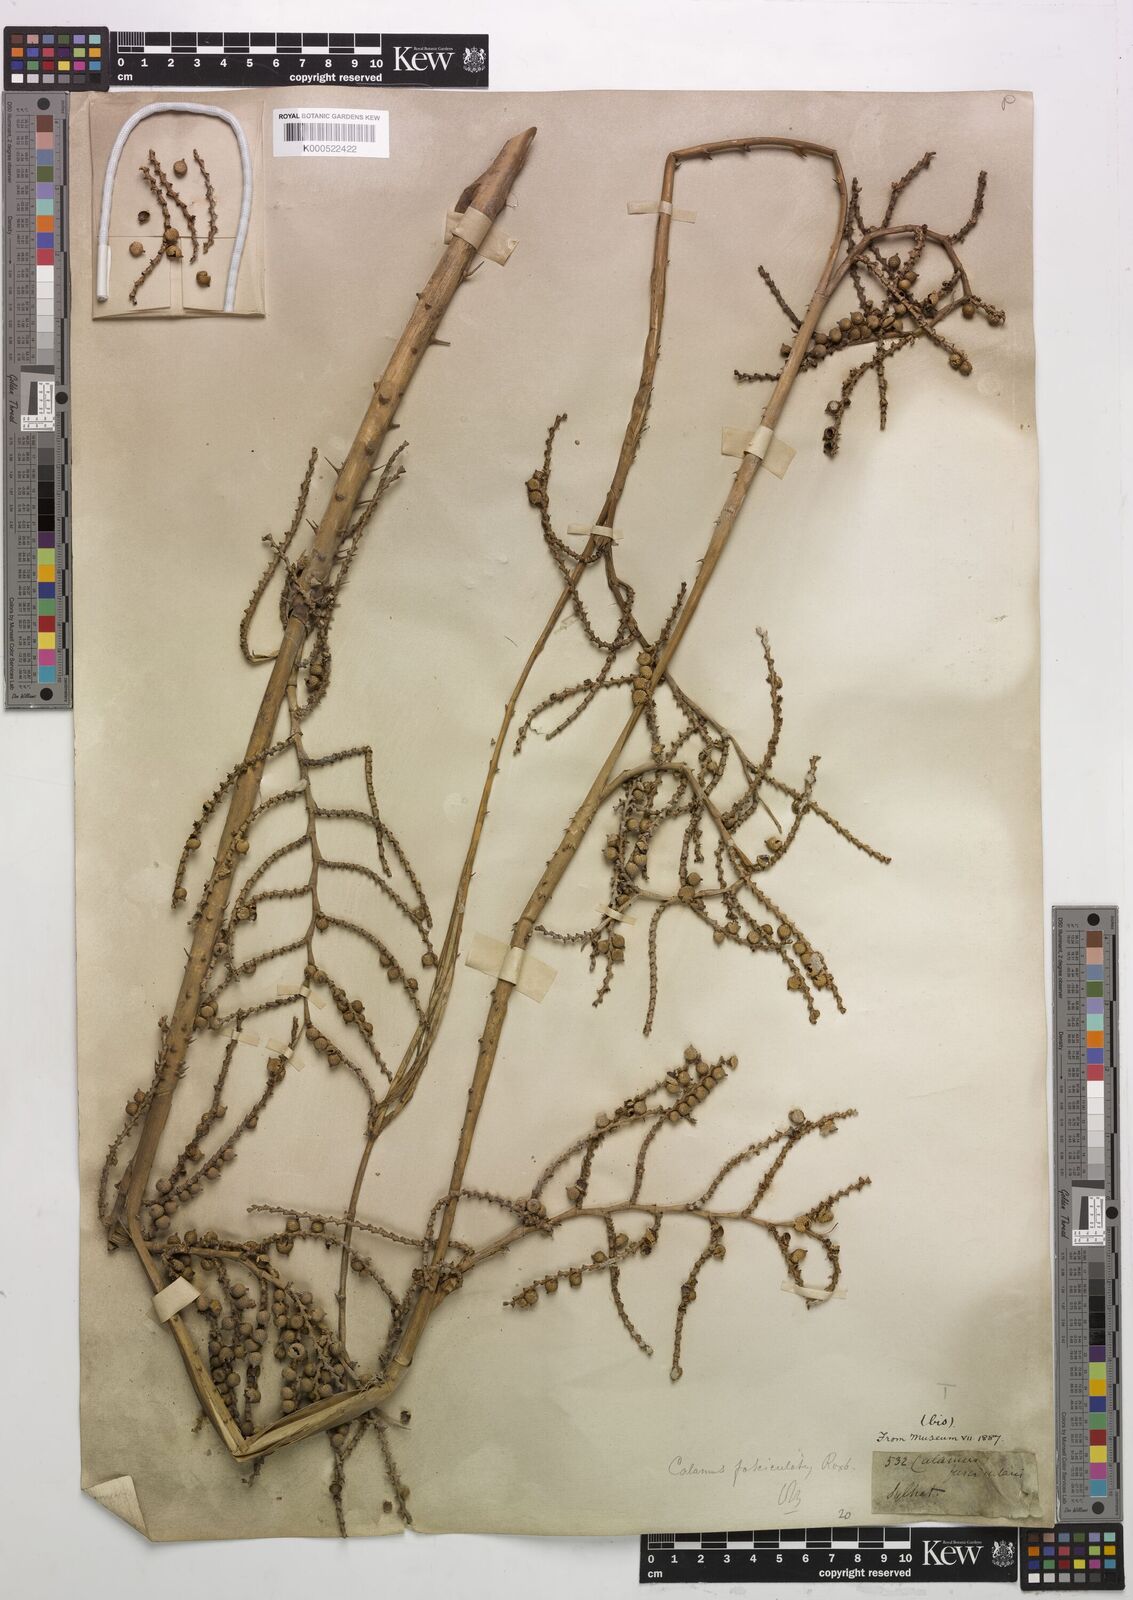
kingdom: Plantae
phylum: Tracheophyta
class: Liliopsida
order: Arecales
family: Arecaceae
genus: Calamus
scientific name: Calamus viminalis
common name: Osier-like rattan palm
